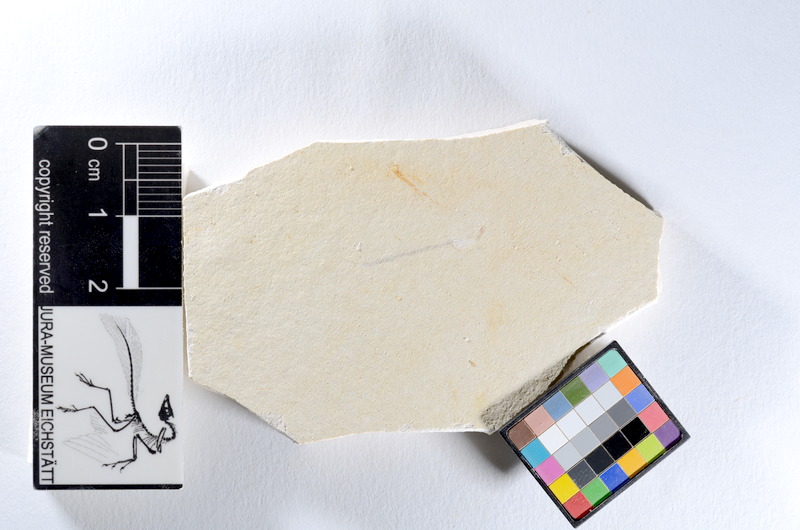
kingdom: Animalia
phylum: Chordata
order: Salmoniformes
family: Orthogonikleithridae
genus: Orthogonikleithrus
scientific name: Orthogonikleithrus hoelli
